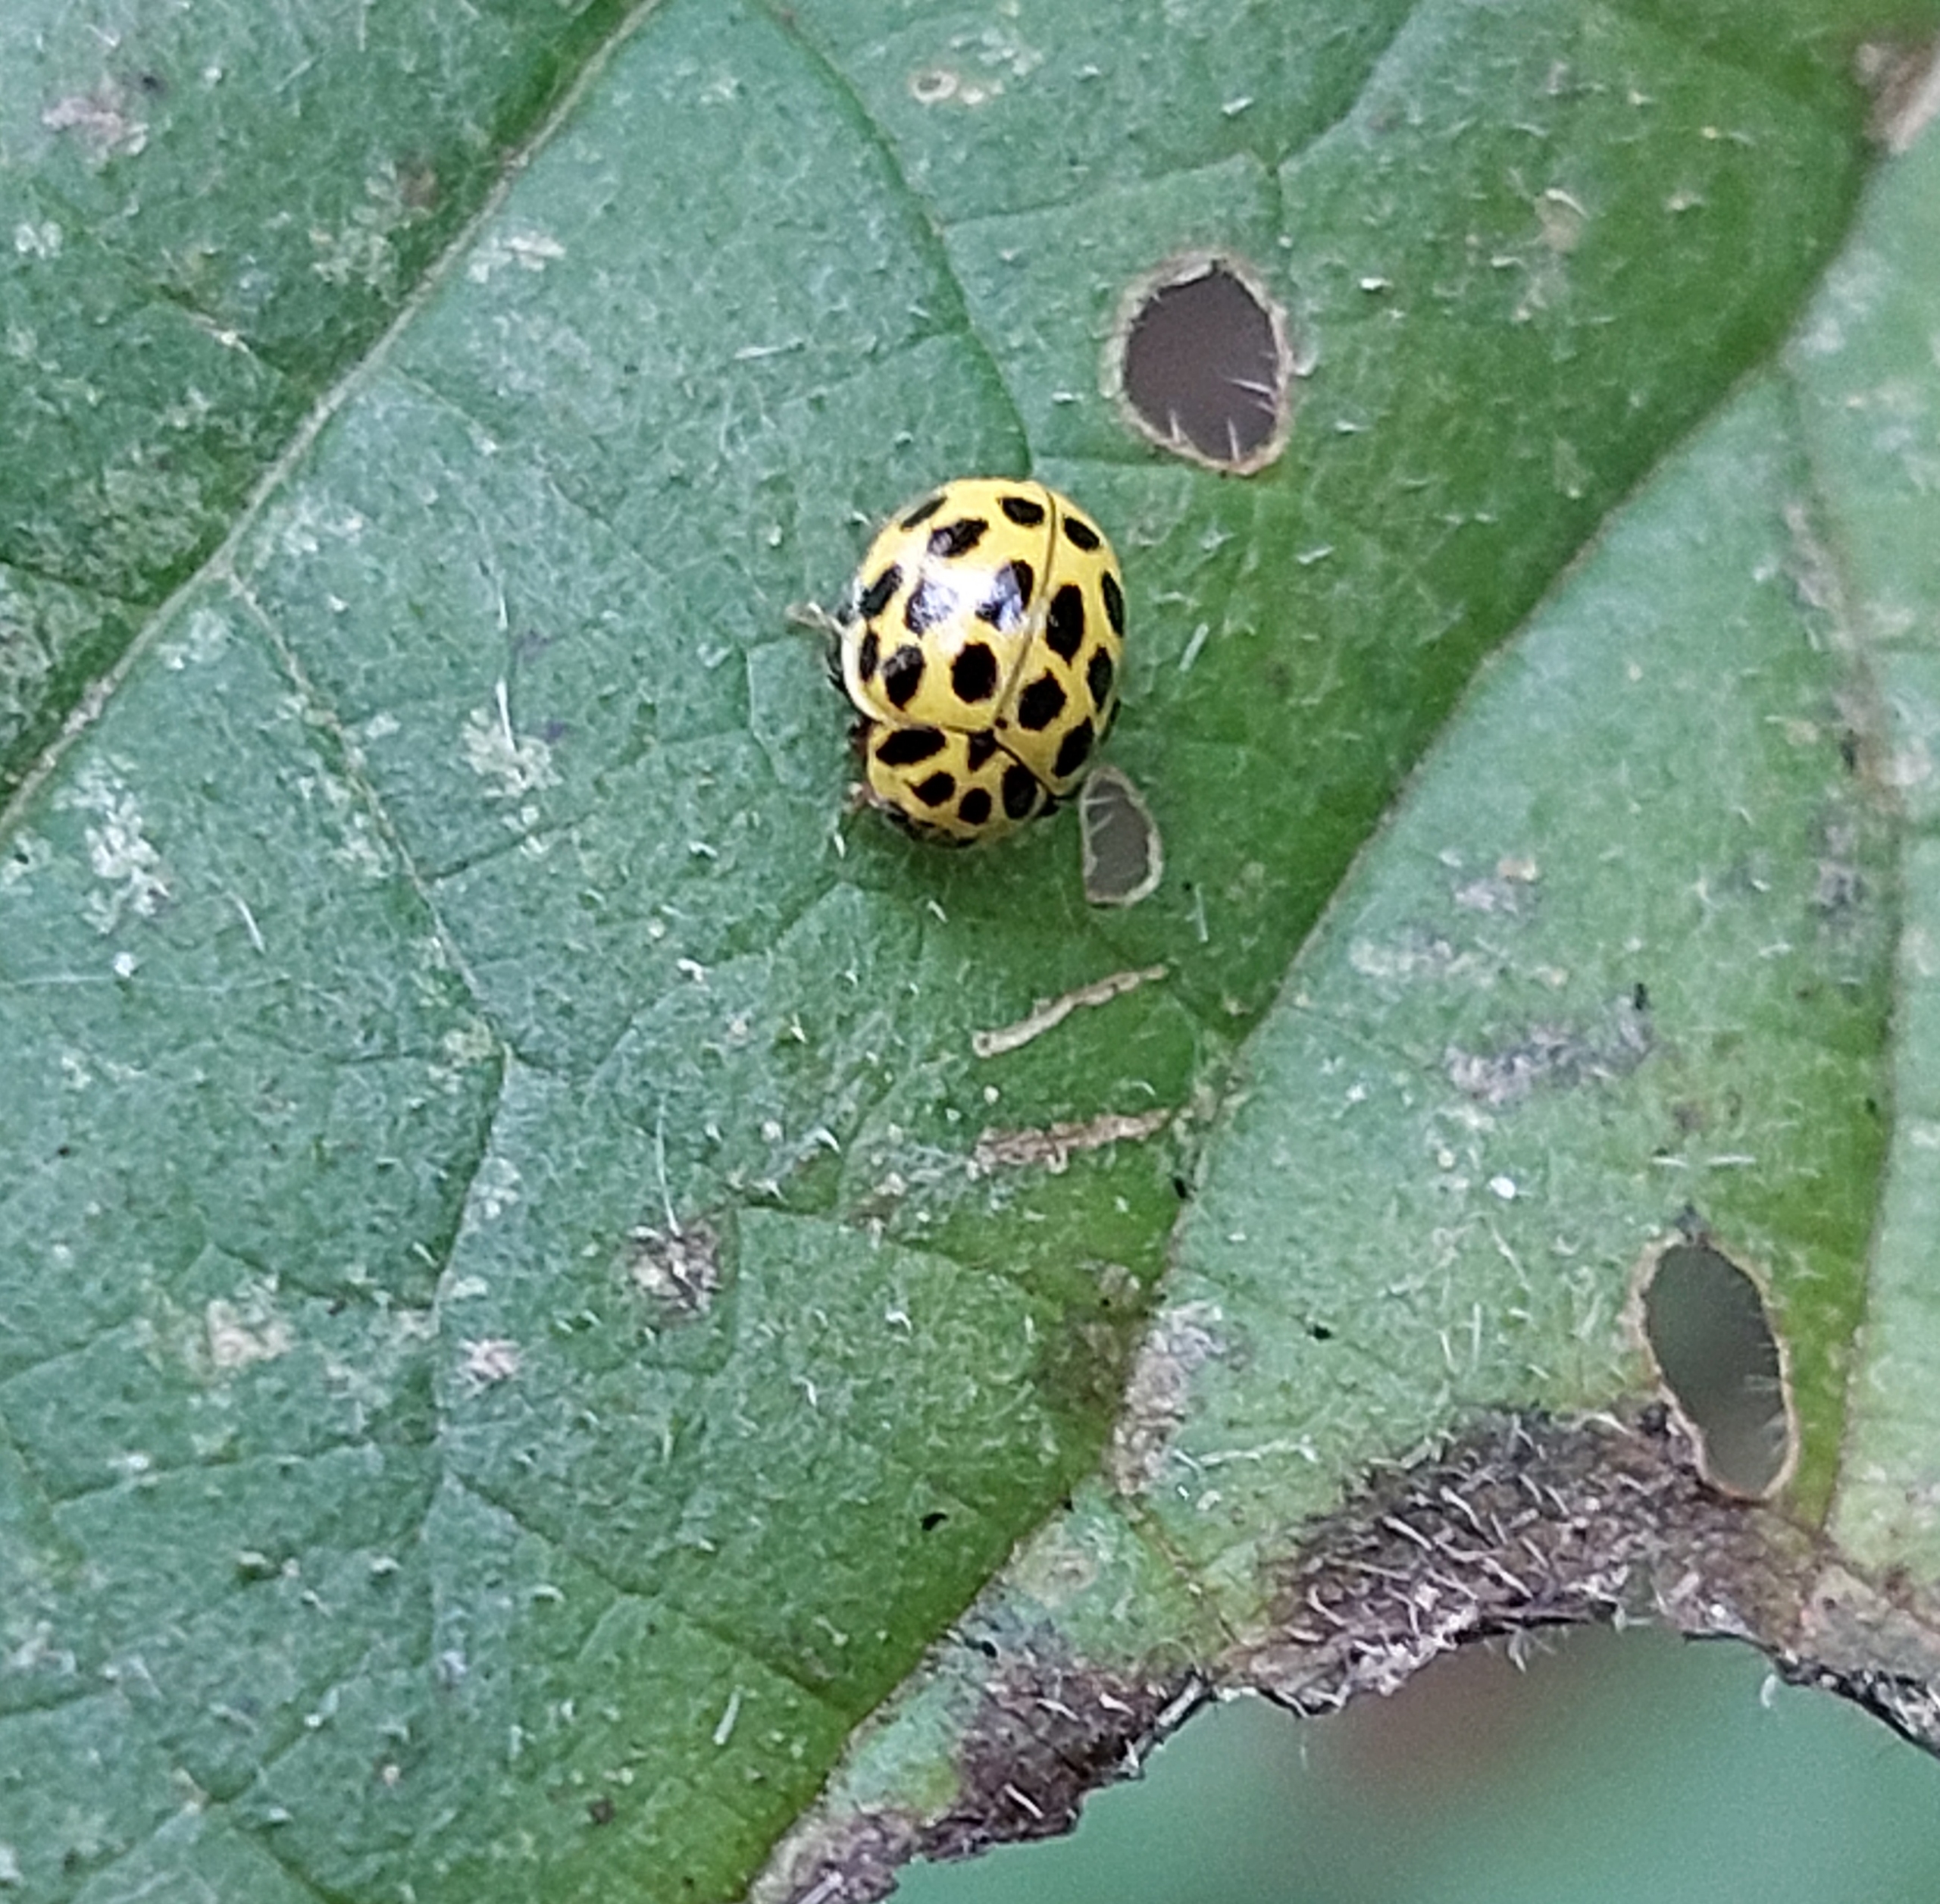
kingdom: Animalia
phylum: Arthropoda
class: Insecta
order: Coleoptera
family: Coccinellidae
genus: Psyllobora
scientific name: Psyllobora vigintiduopunctata
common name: Toogtyveplettet mariehøne
